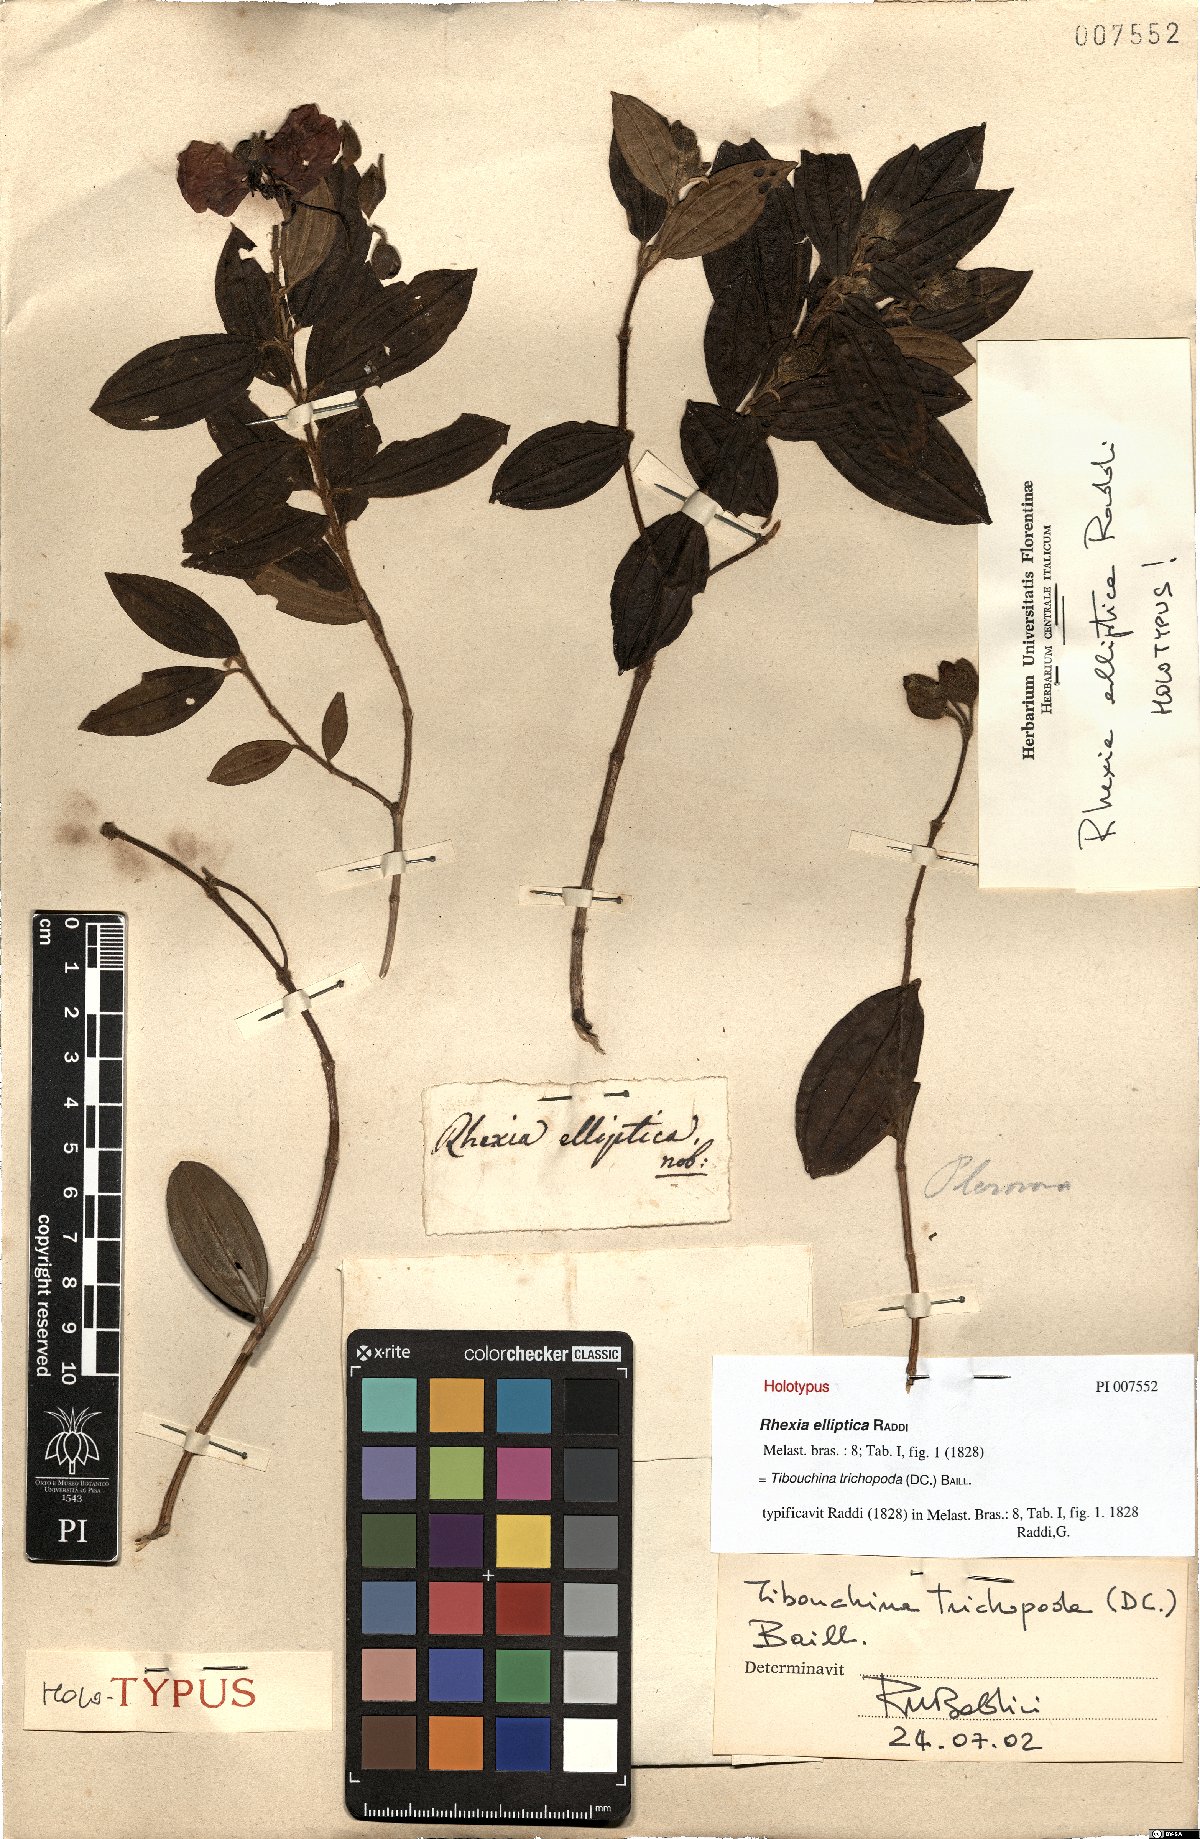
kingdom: Plantae
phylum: Tracheophyta
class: Magnoliopsida
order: Myrtales
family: Melastomataceae
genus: Pleroma
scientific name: Pleroma trichopodum
